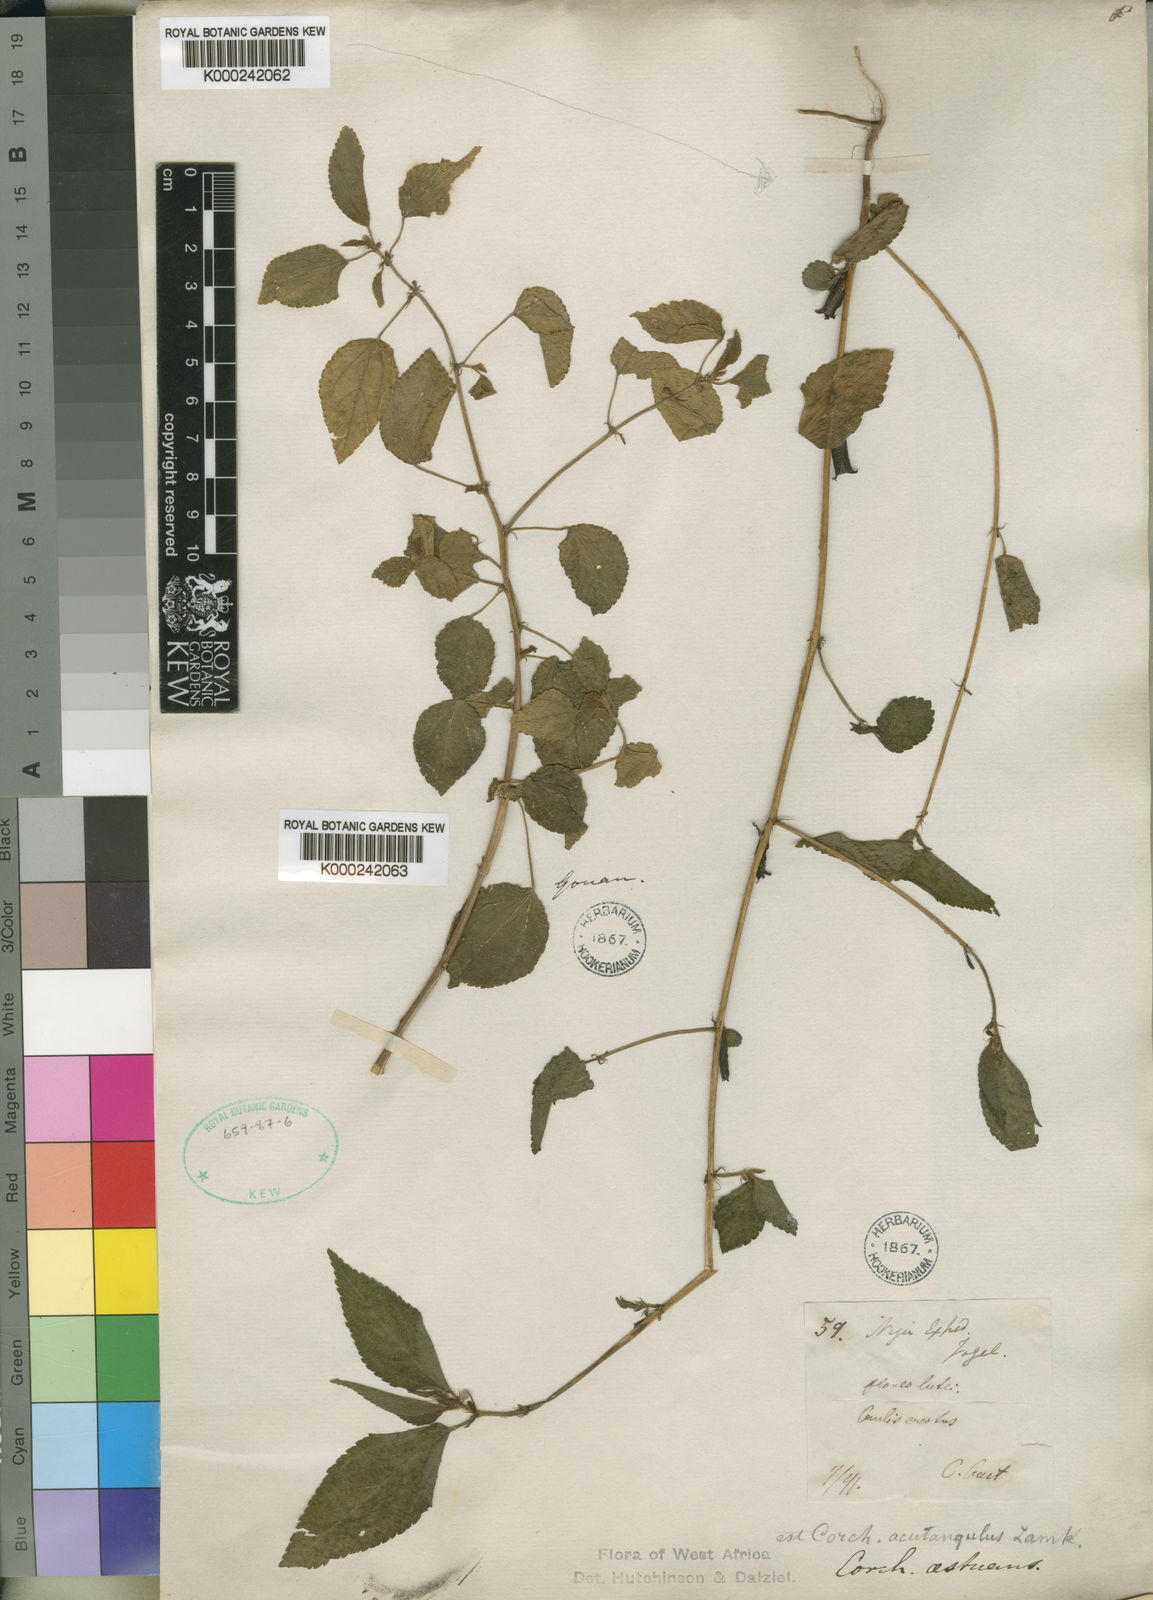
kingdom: Plantae
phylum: Tracheophyta
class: Magnoliopsida
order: Malvales
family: Malvaceae
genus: Corchorus
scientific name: Corchorus aestuans
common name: Jute
